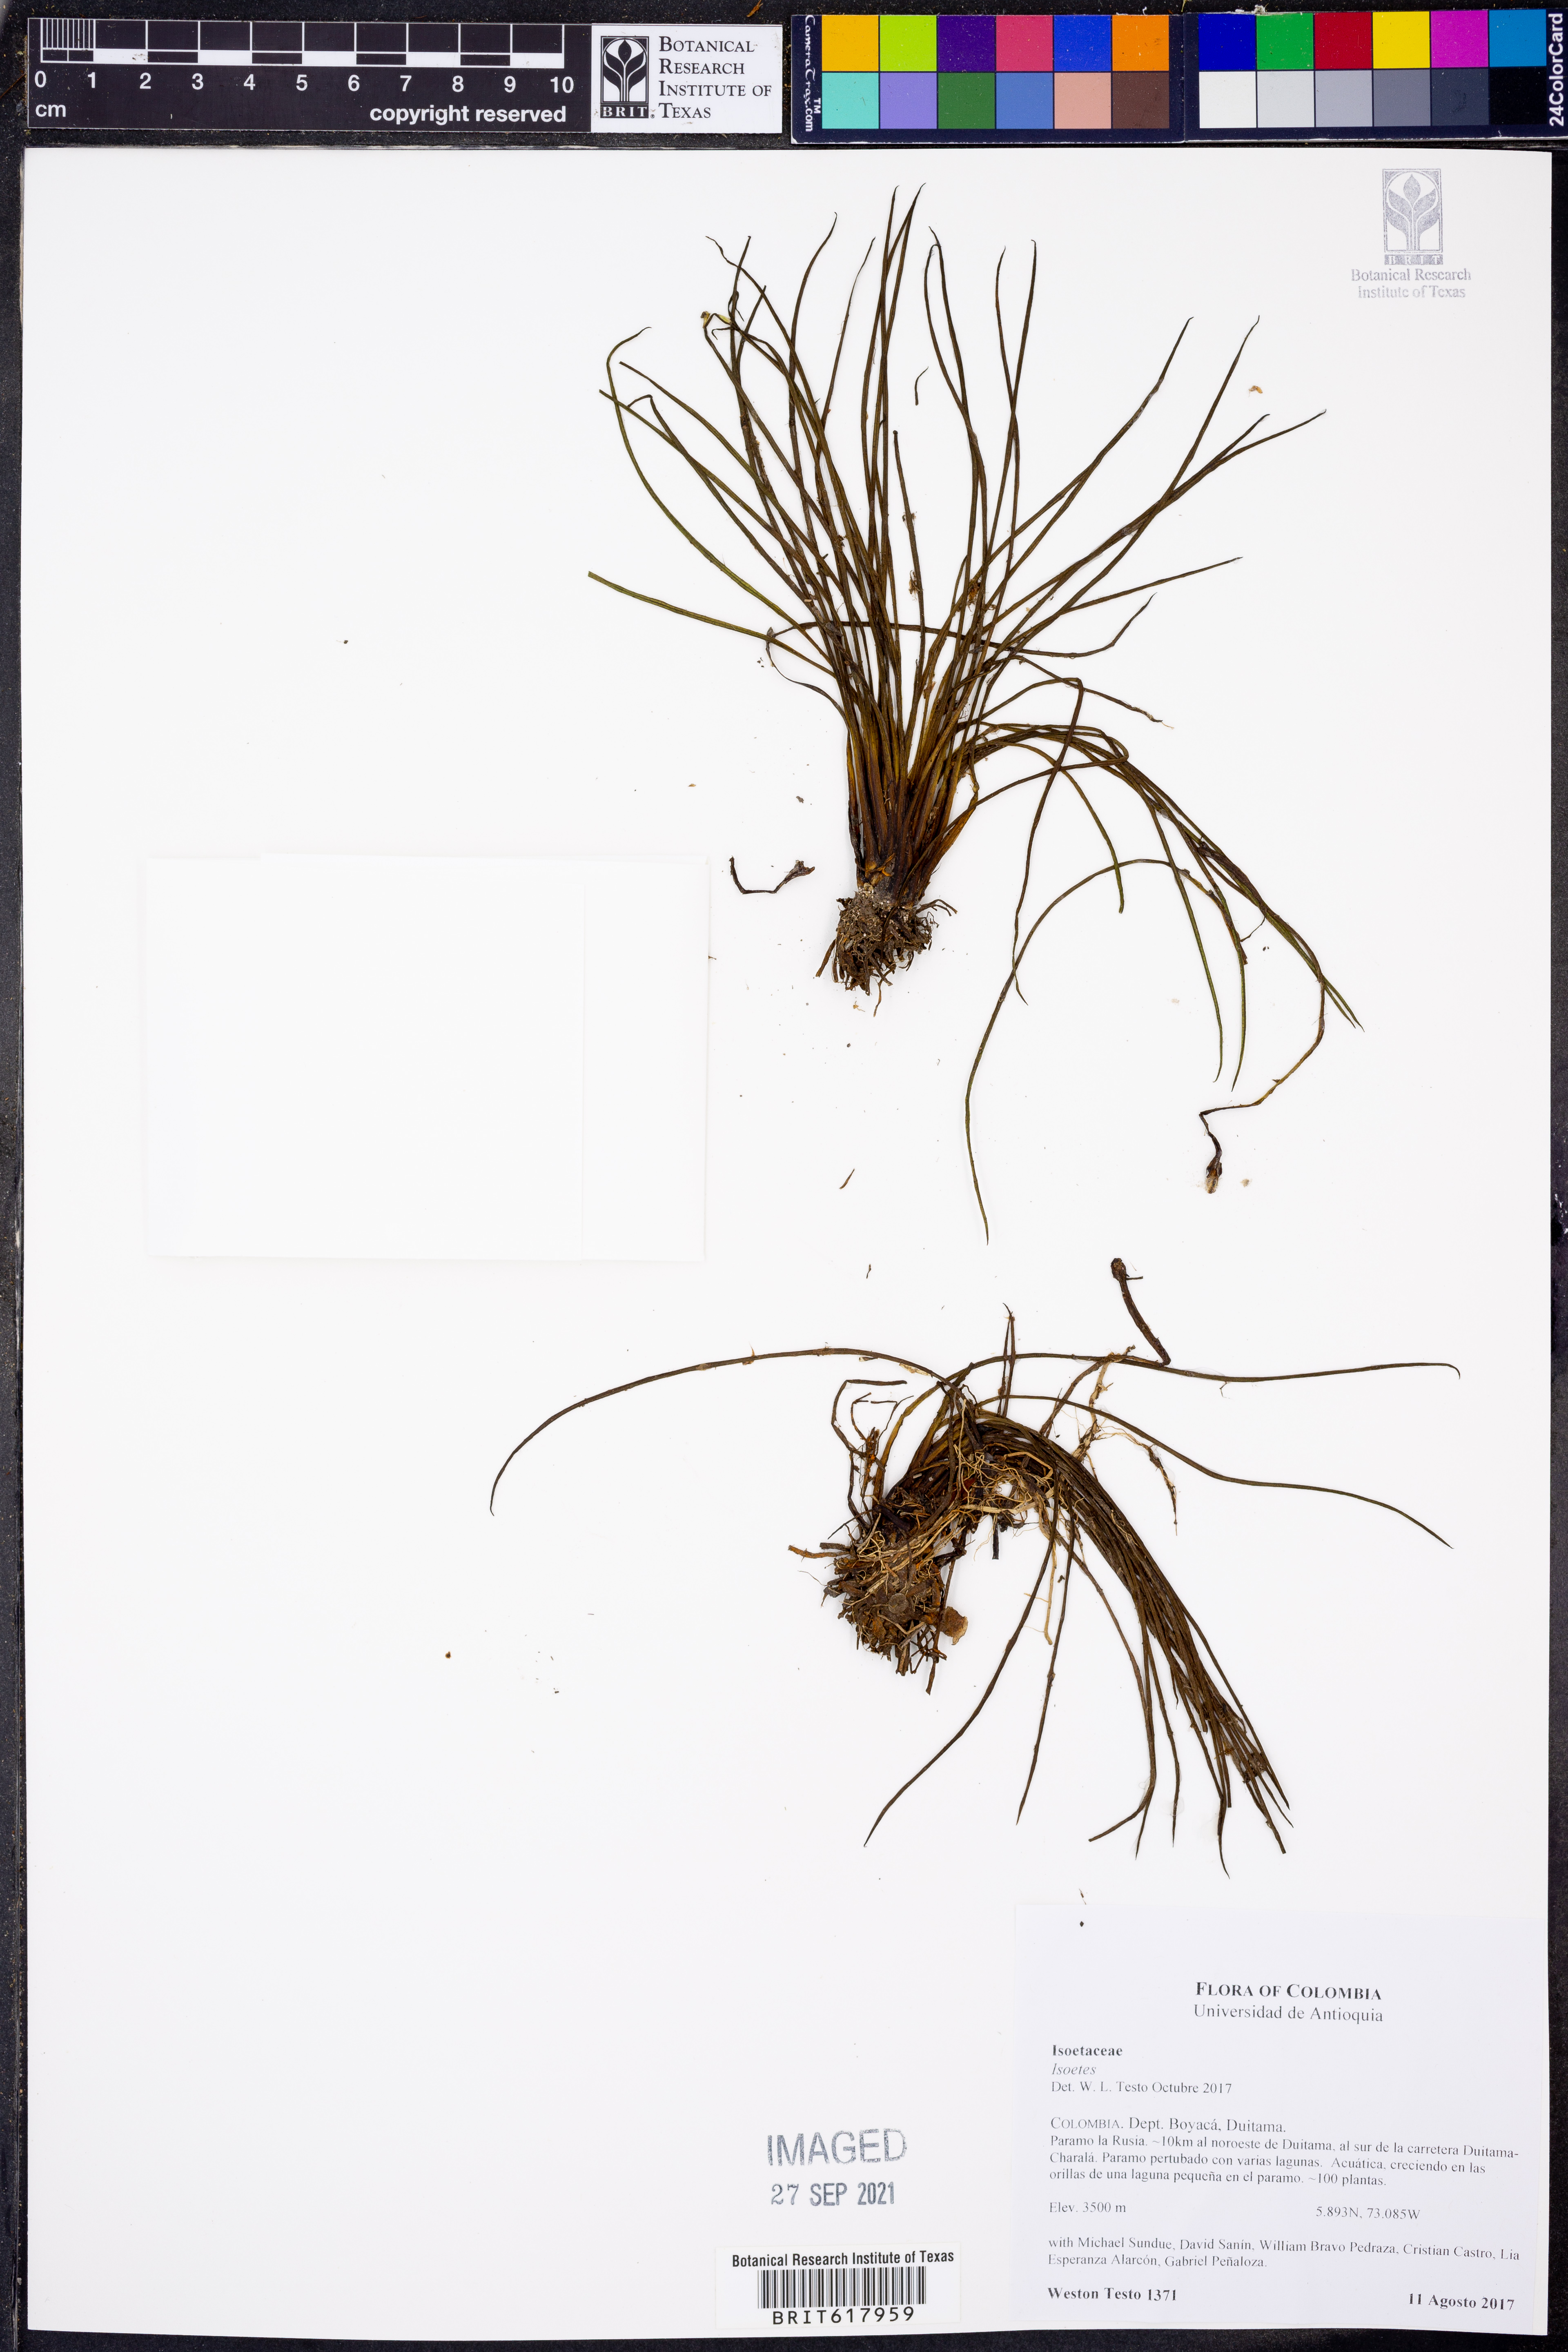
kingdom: Plantae
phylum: Tracheophyta
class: Lycopodiopsida
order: Isoetales
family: Isoetaceae
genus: Isoetes
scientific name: Isoetes
